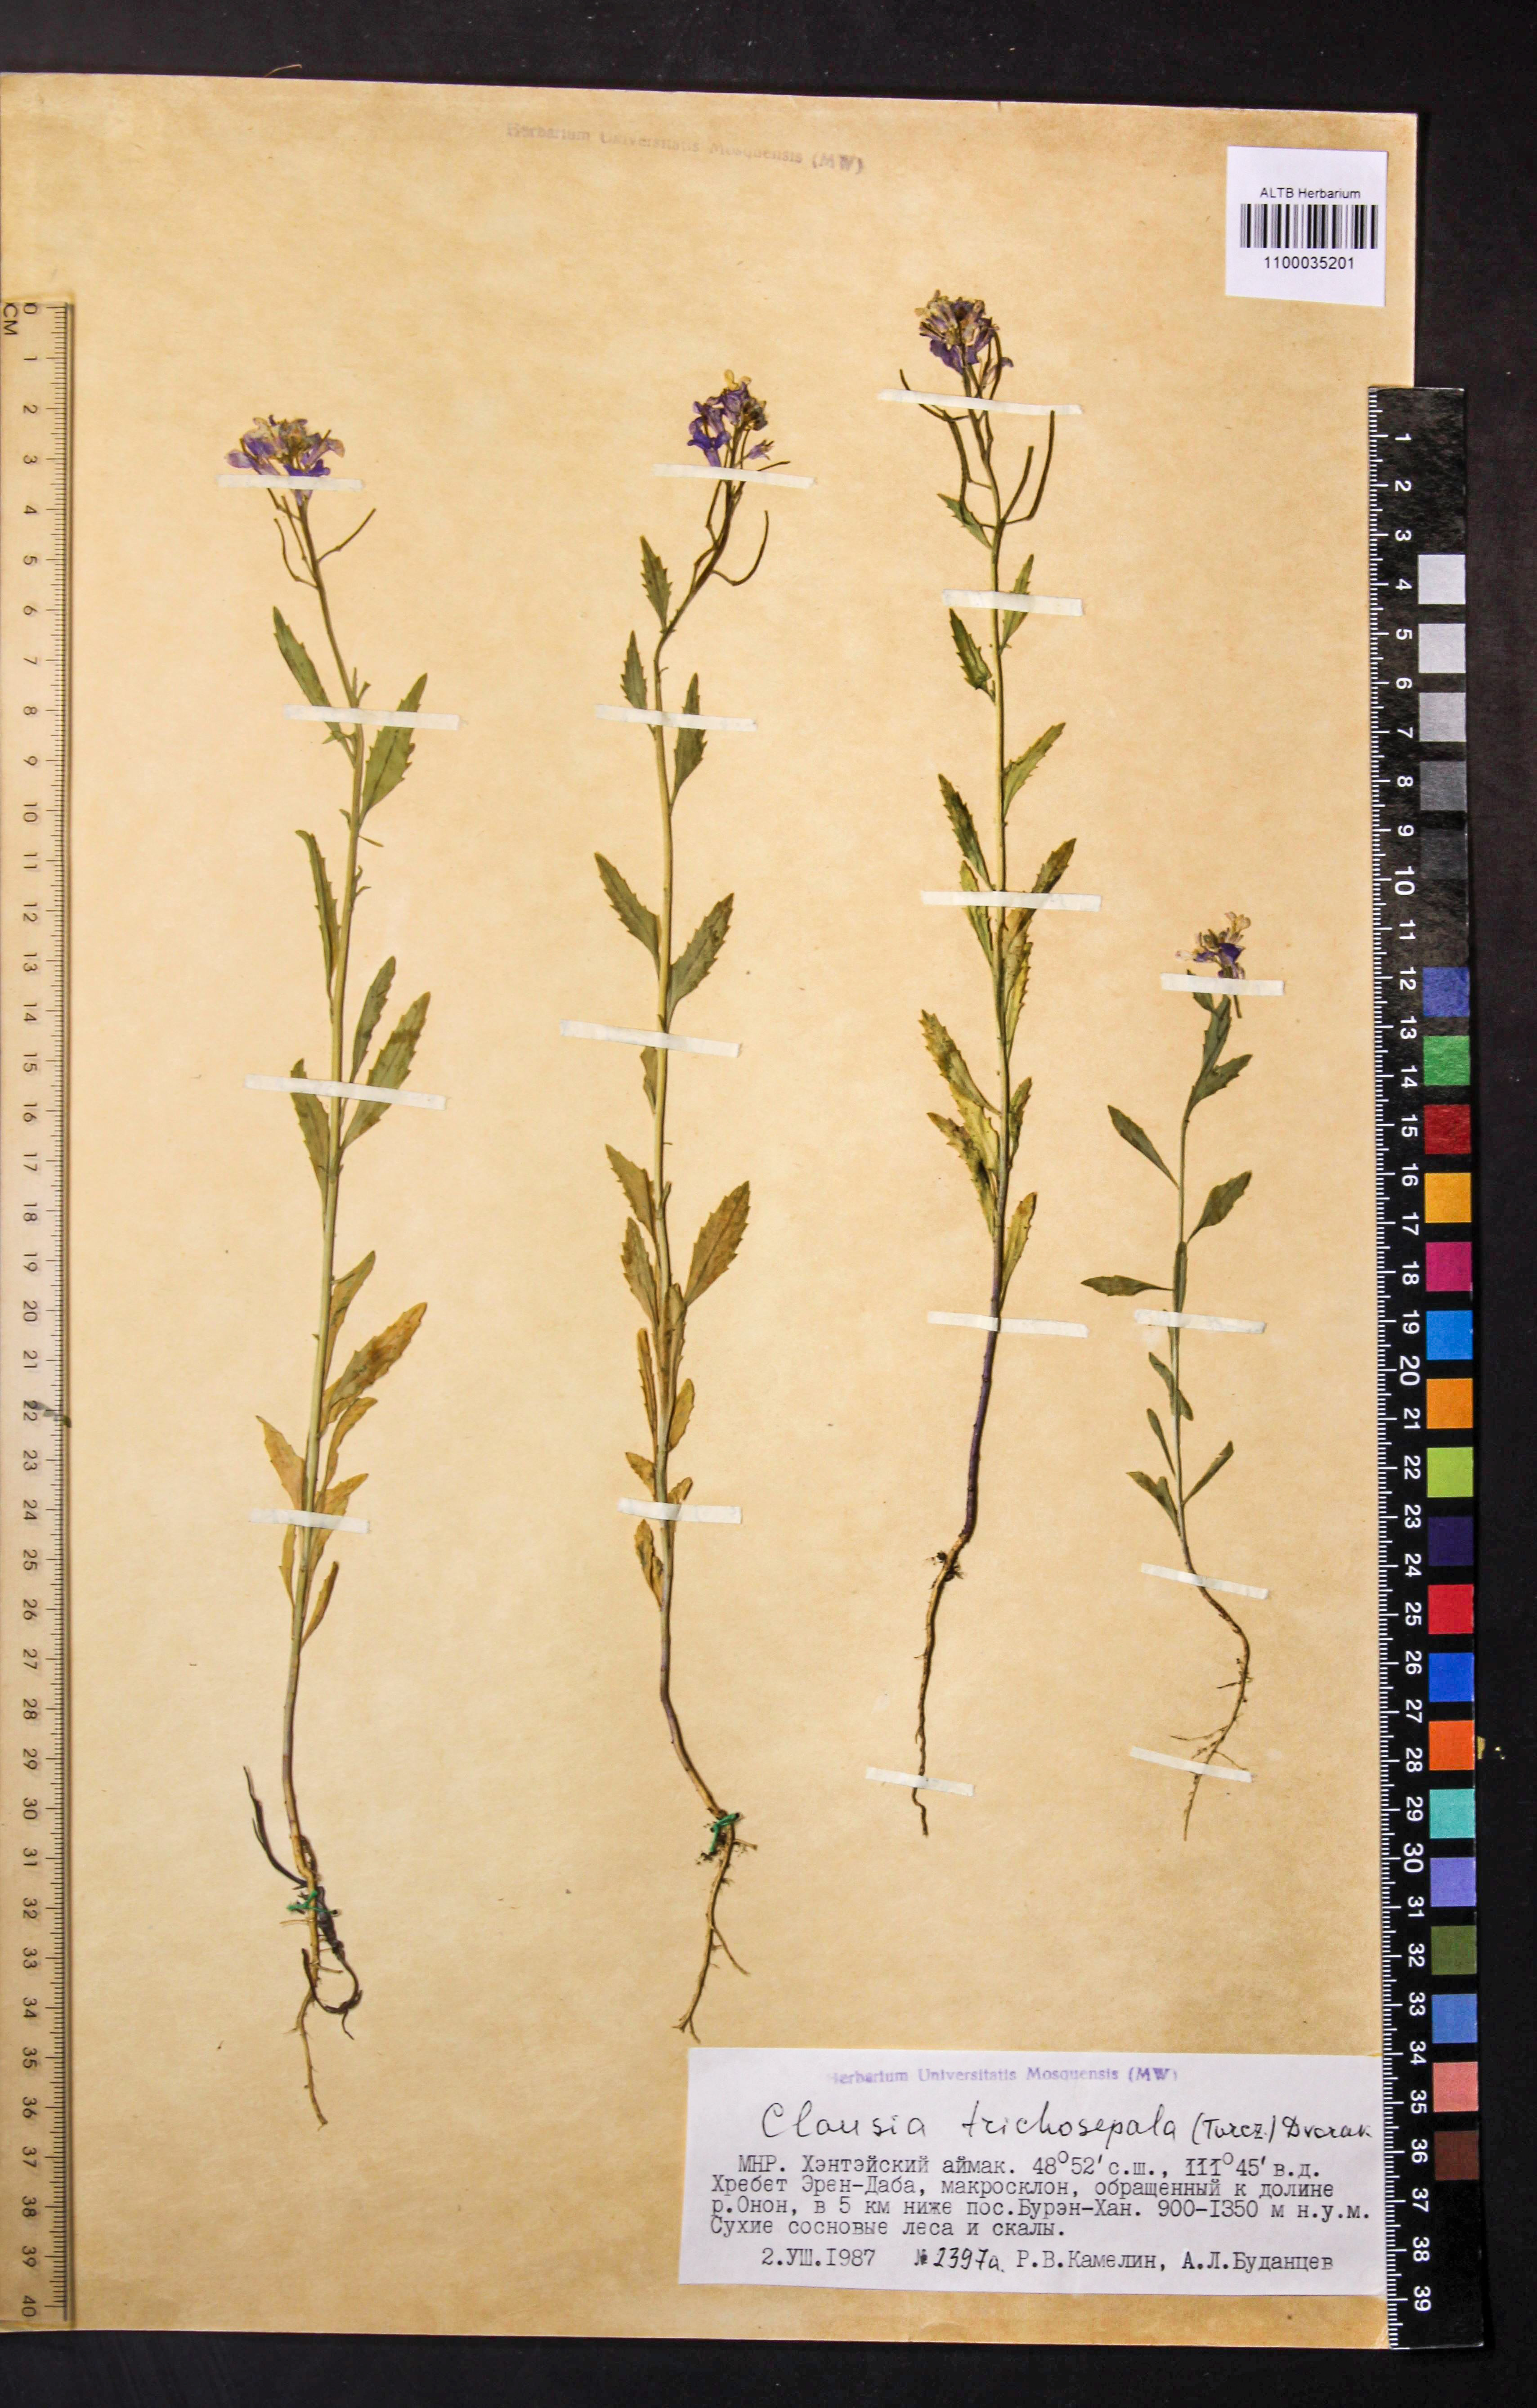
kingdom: Plantae
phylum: Tracheophyta
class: Magnoliopsida
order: Brassicales
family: Brassicaceae
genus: Clausia
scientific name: Clausia trichosepala
